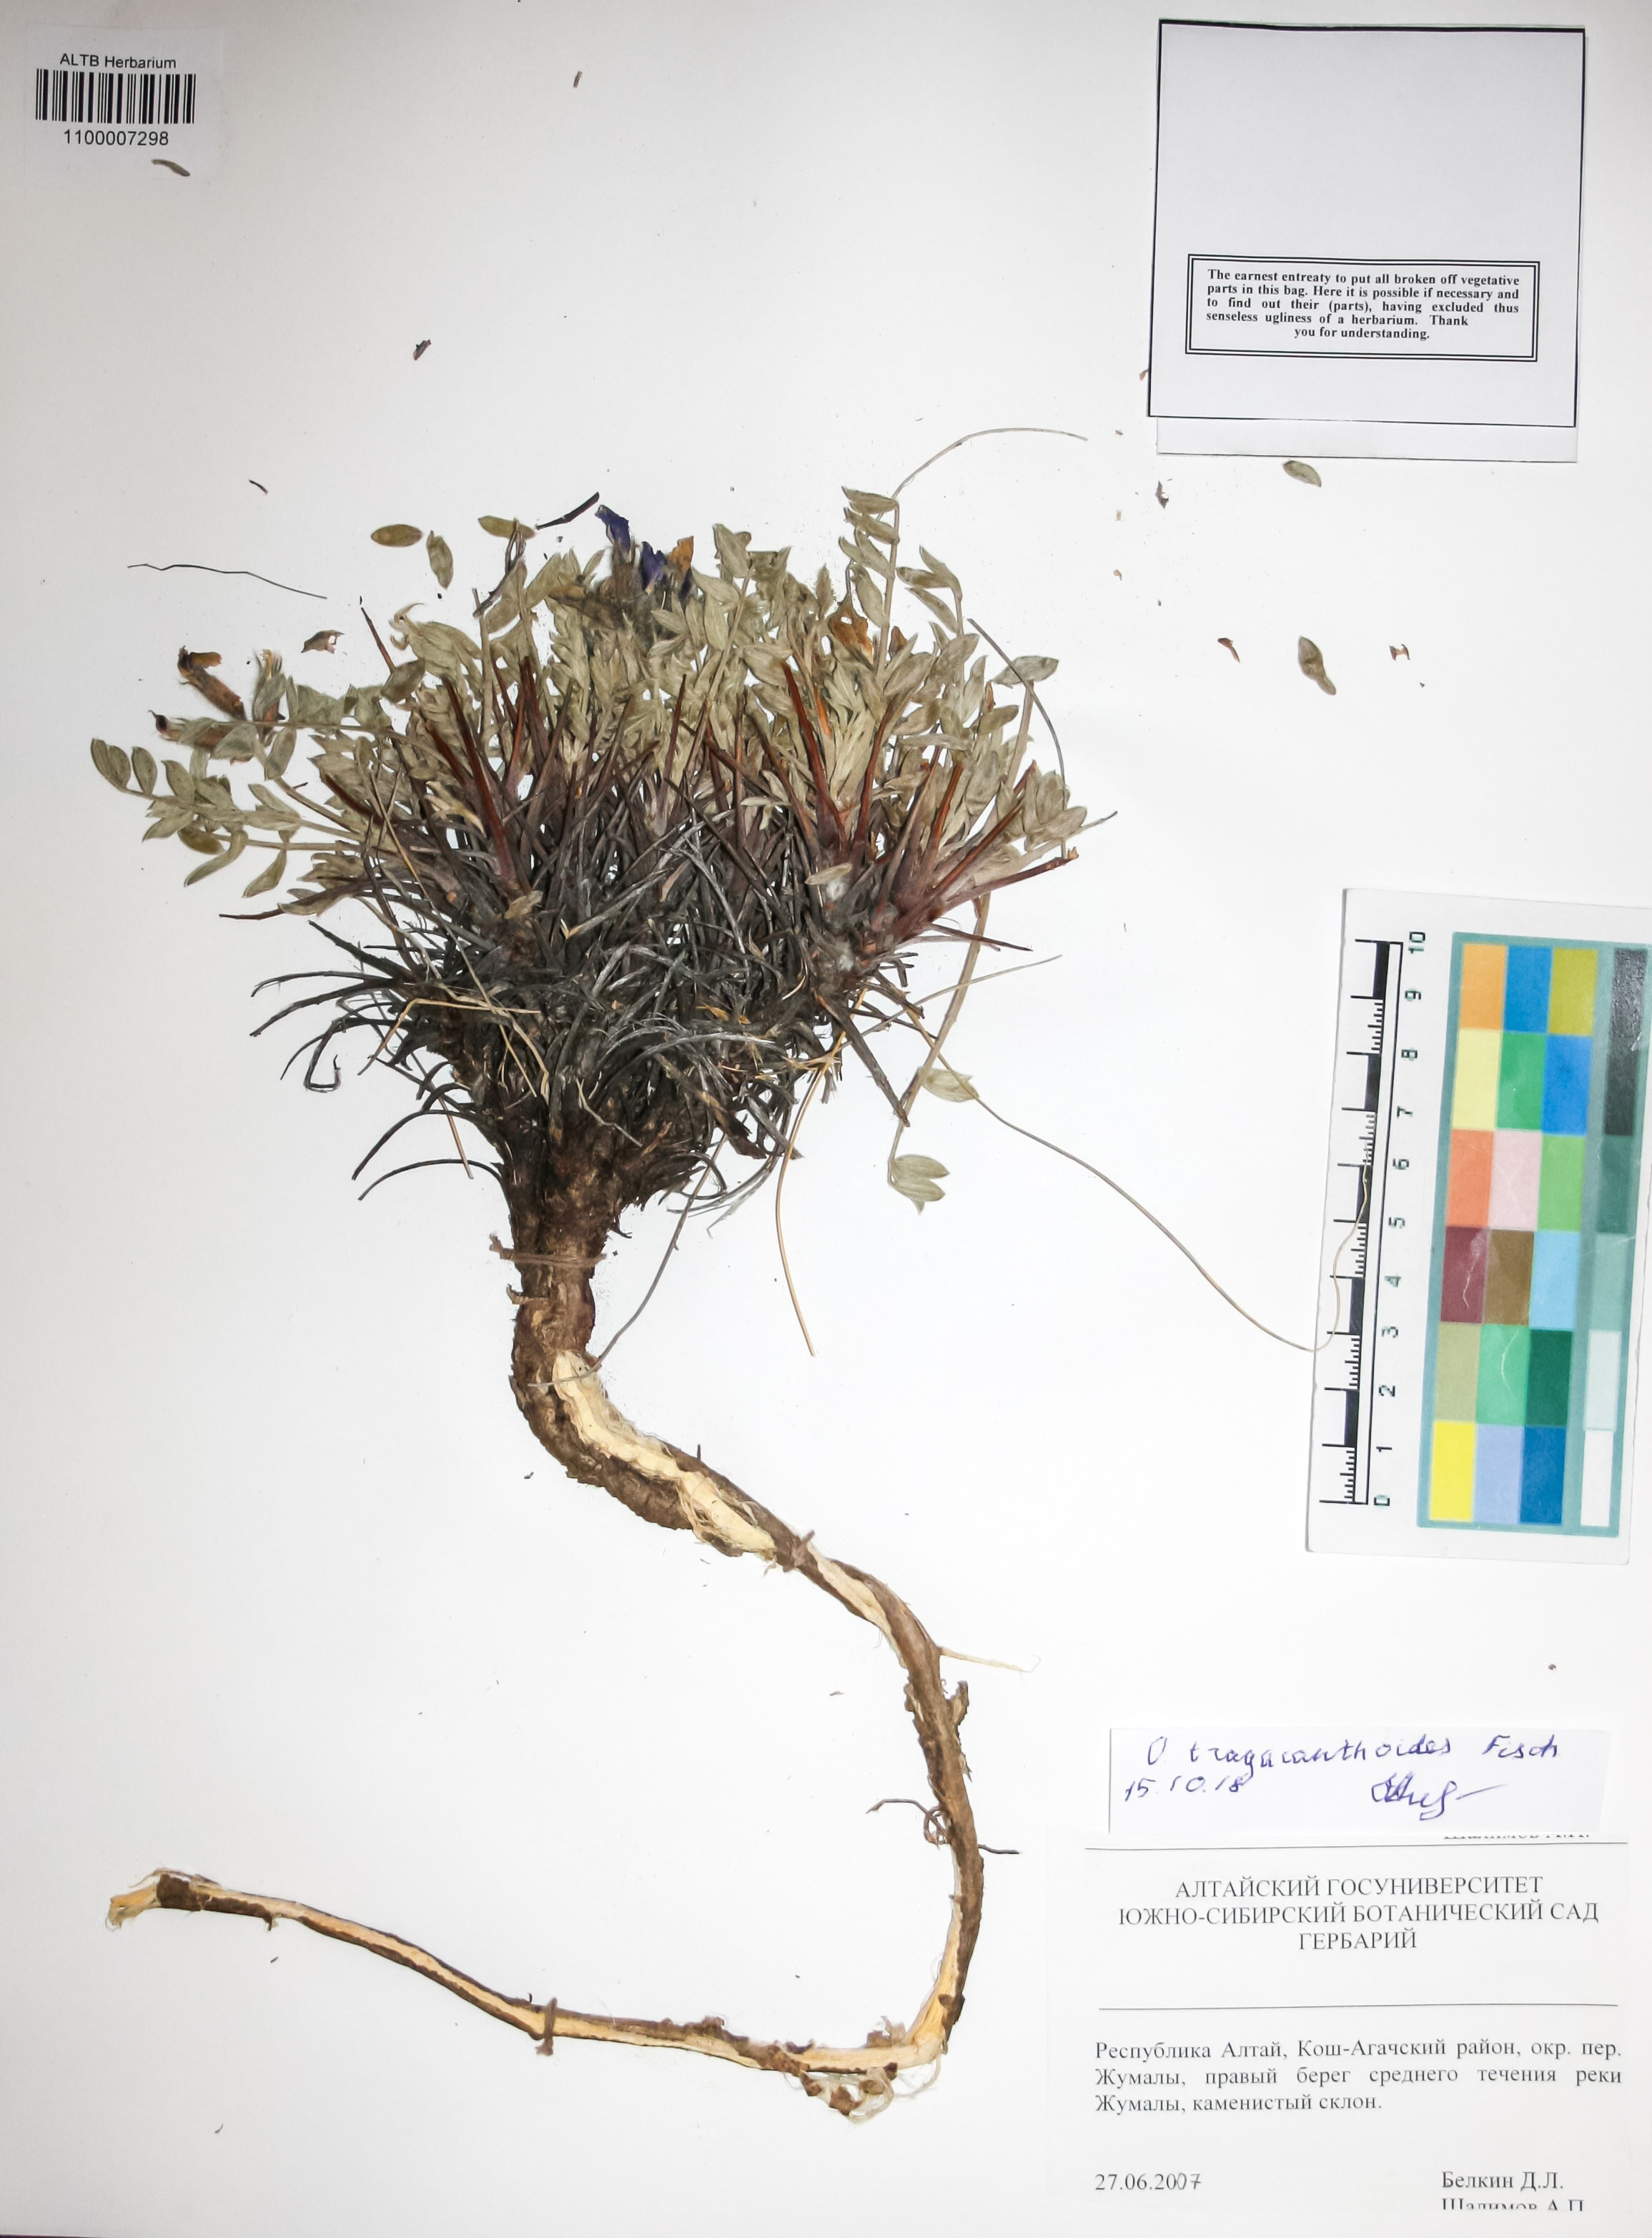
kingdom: Plantae
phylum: Tracheophyta
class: Magnoliopsida
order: Fabales
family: Fabaceae
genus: Oxytropis
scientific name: Oxytropis tragacanthoides
